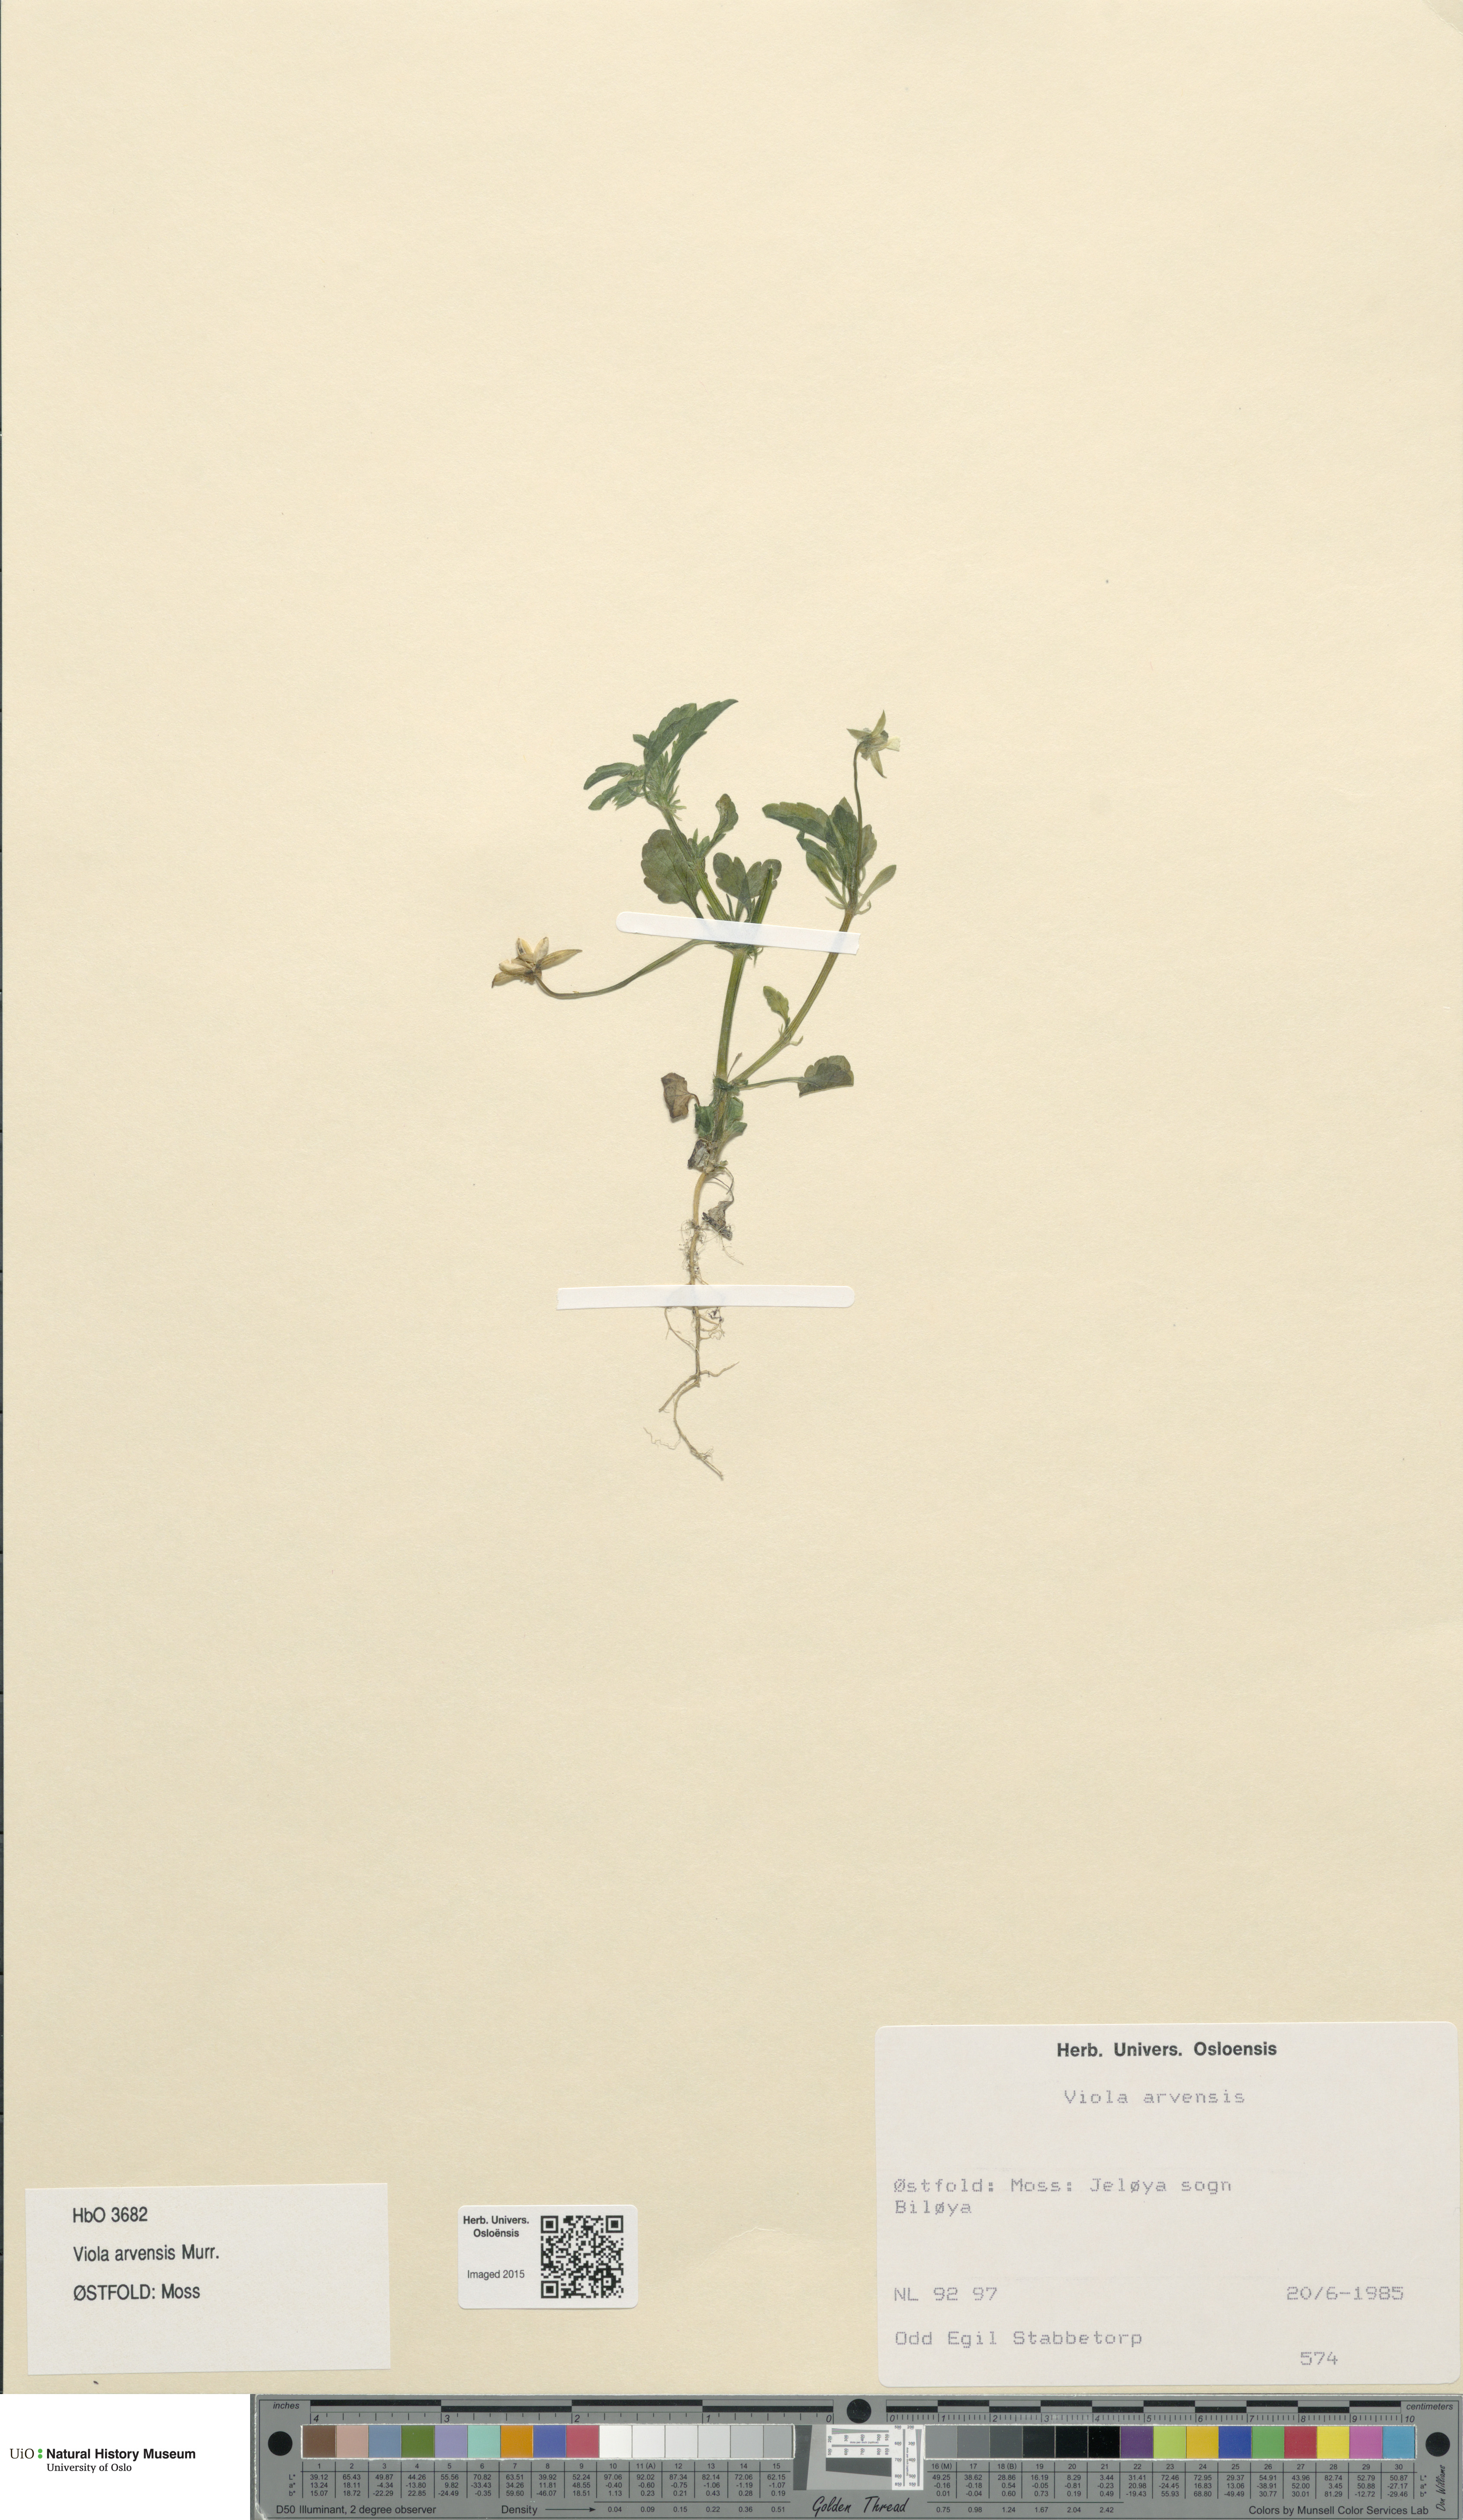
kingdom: Plantae
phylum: Tracheophyta
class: Magnoliopsida
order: Malpighiales
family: Violaceae
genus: Viola
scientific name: Viola arvensis
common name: Field pansy
